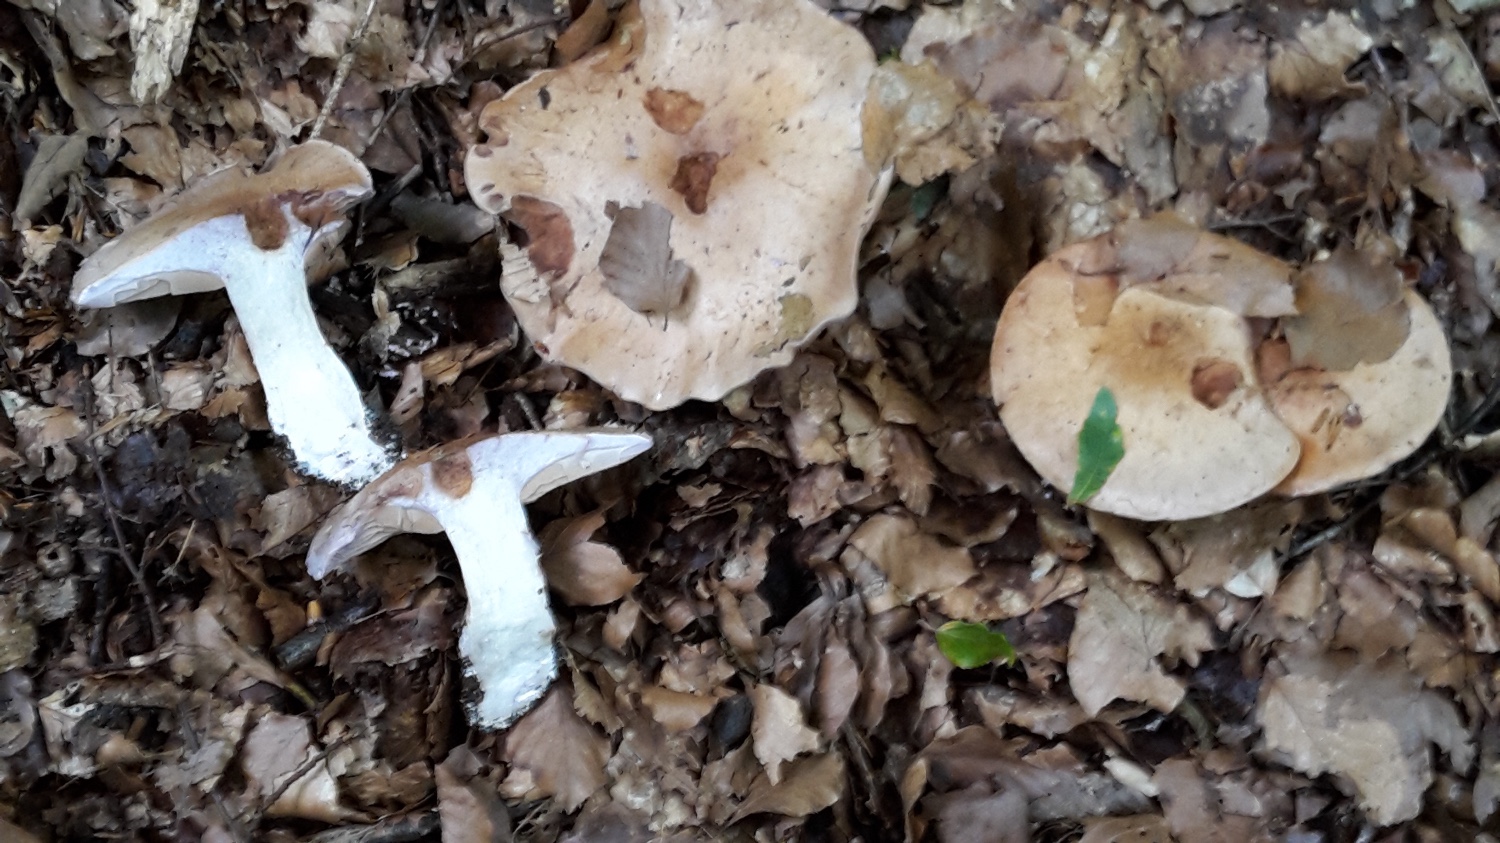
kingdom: Fungi
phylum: Basidiomycota
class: Agaricomycetes
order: Agaricales
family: Cortinariaceae
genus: Cortinarius
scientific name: Cortinarius largus
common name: violetrandet slørhat
